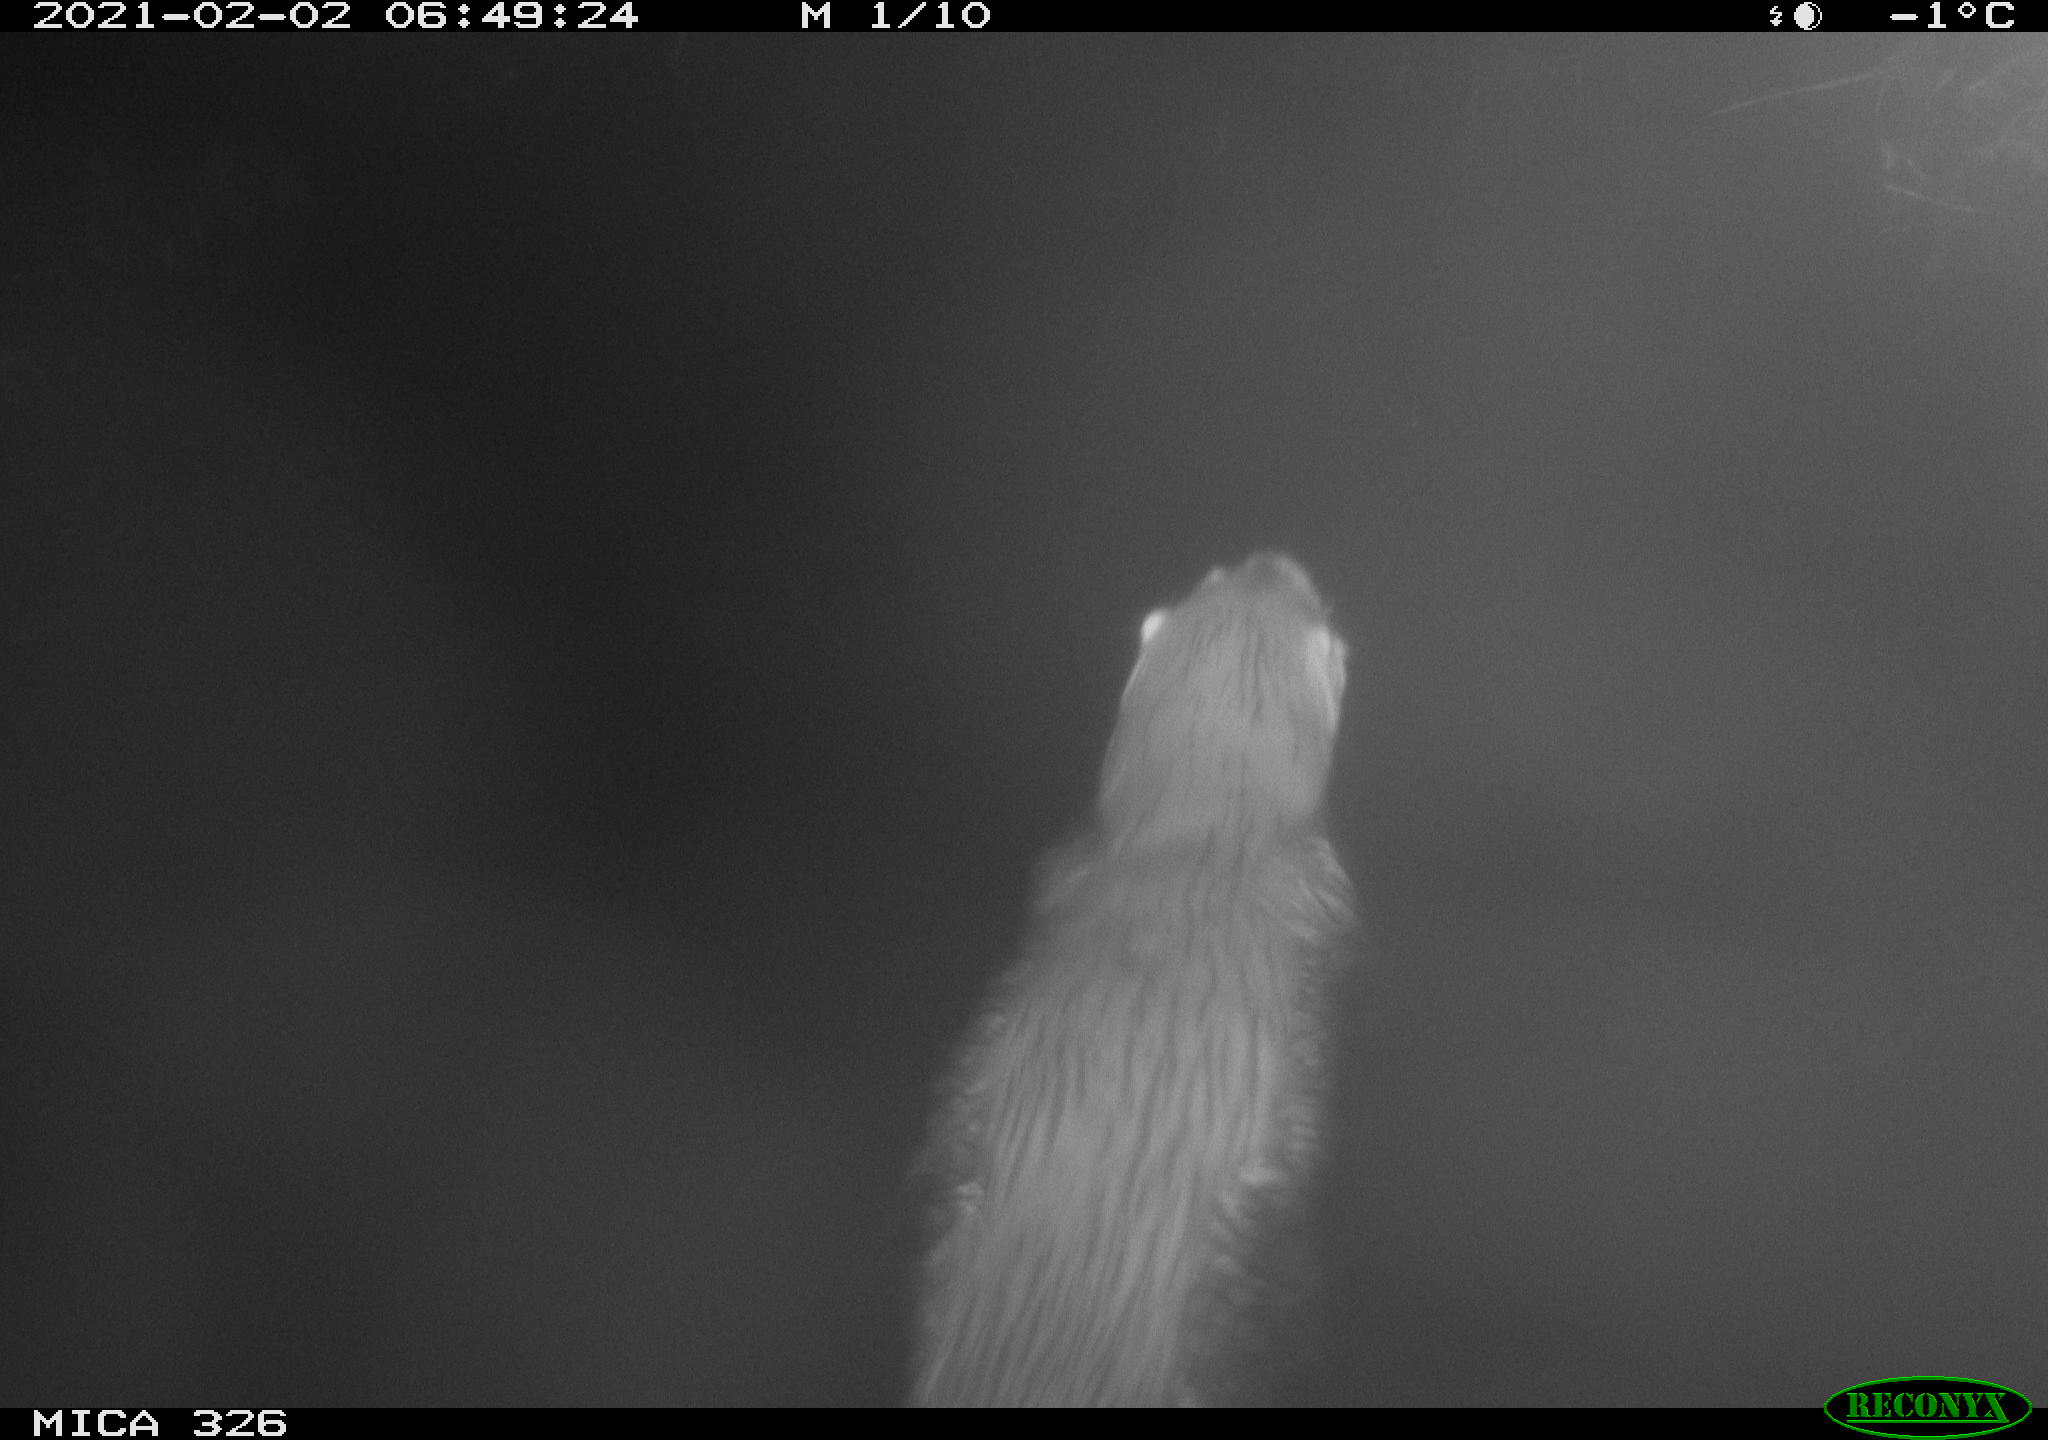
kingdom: Animalia
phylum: Chordata
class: Mammalia
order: Carnivora
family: Mustelidae
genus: Lutra
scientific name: Lutra lutra
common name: European otter
